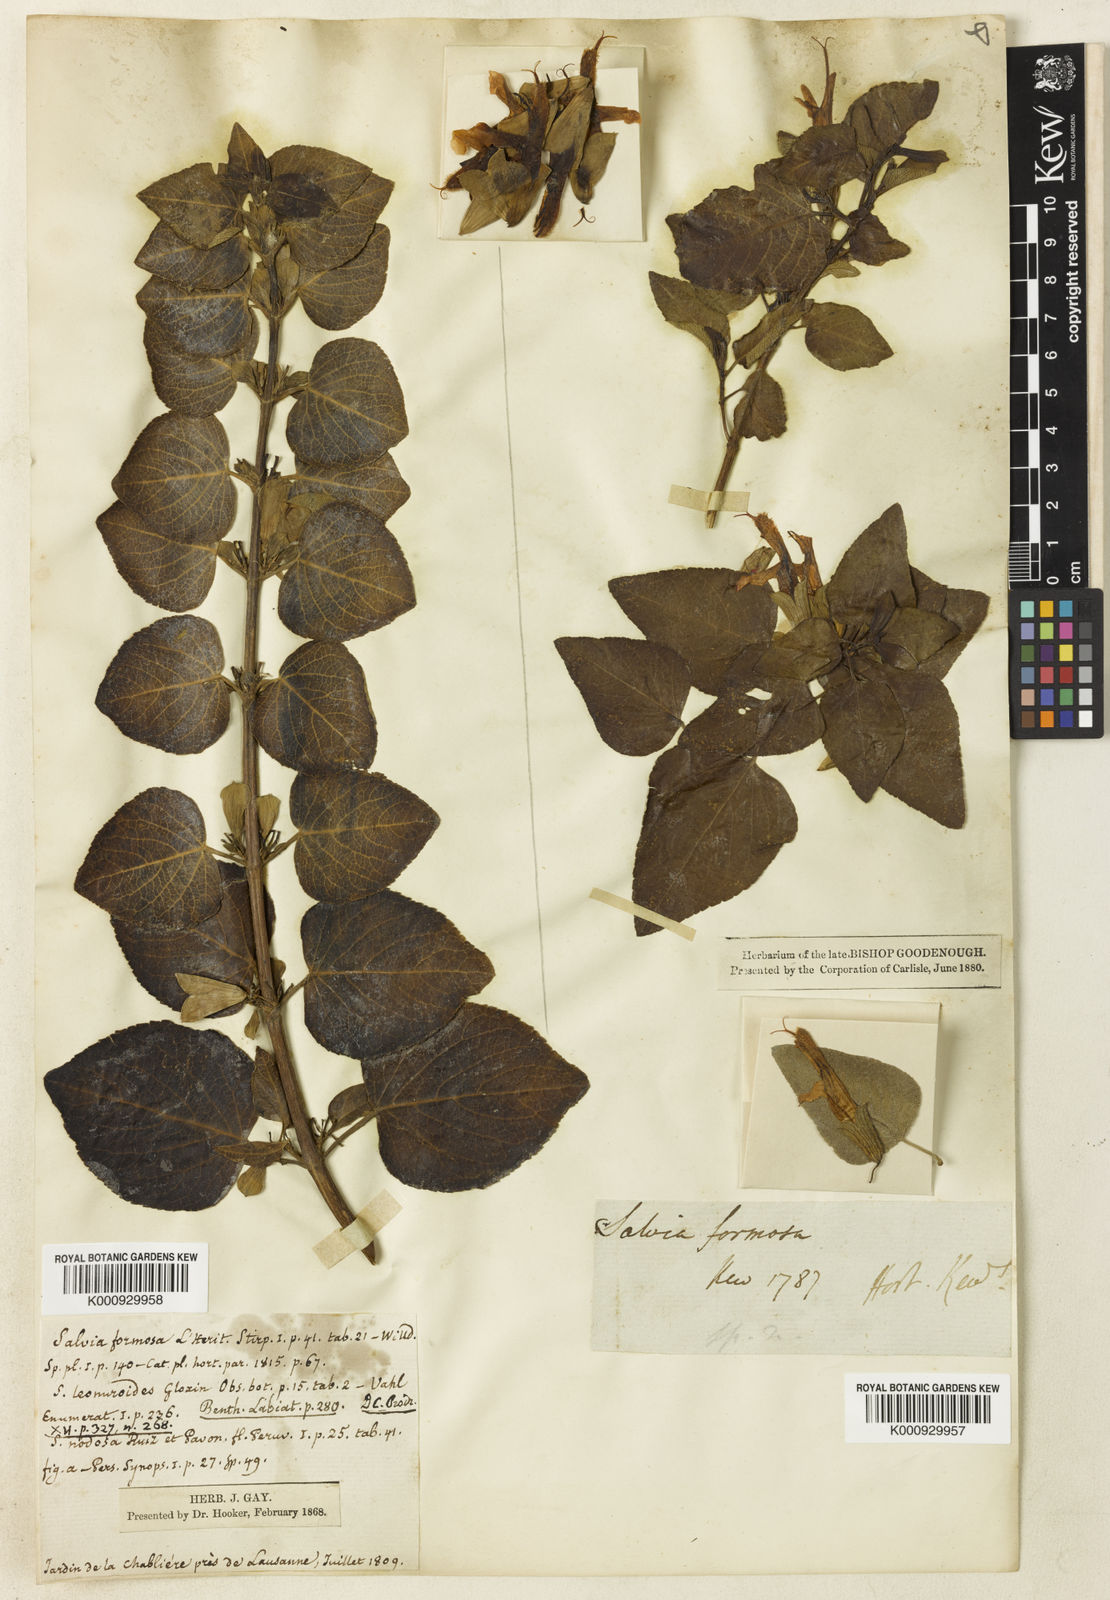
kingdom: Plantae
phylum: Tracheophyta
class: Magnoliopsida
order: Lamiales
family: Lamiaceae
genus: Salvia
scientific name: Salvia leonuroides
